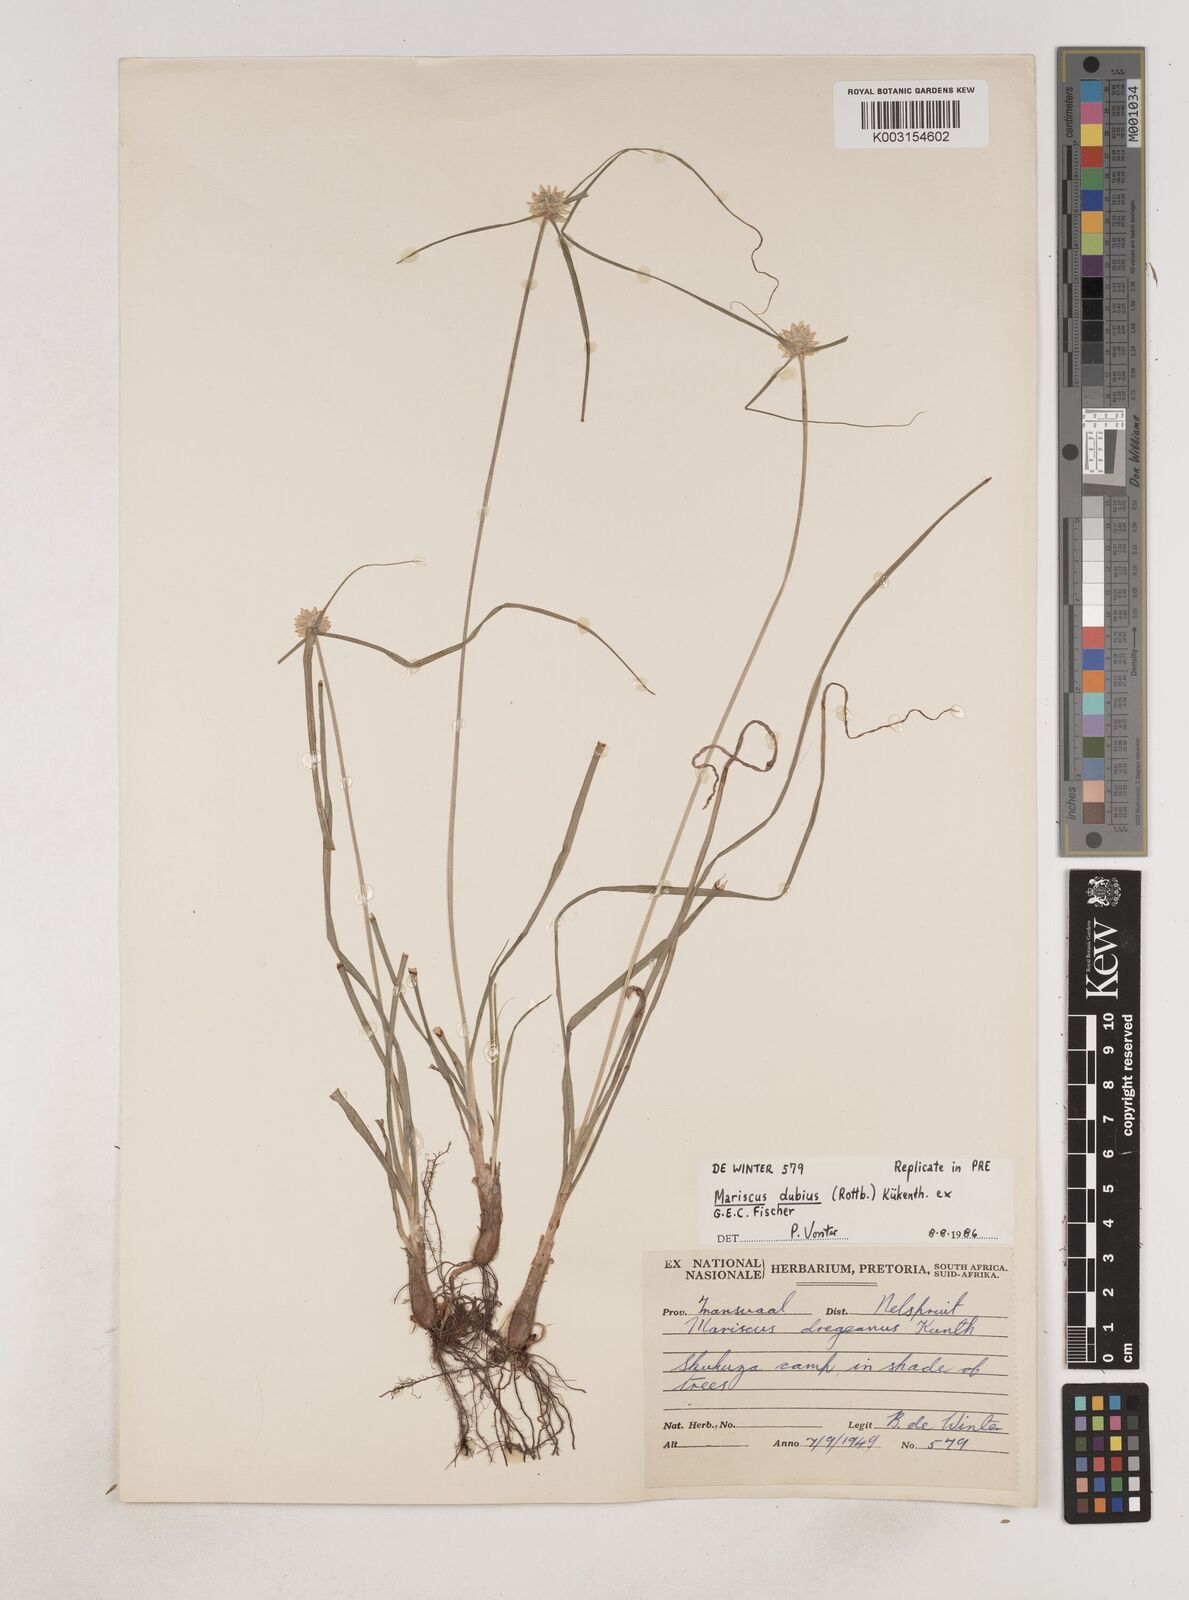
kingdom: Plantae
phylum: Tracheophyta
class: Liliopsida
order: Poales
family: Cyperaceae
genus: Cyperus
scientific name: Cyperus dubius
